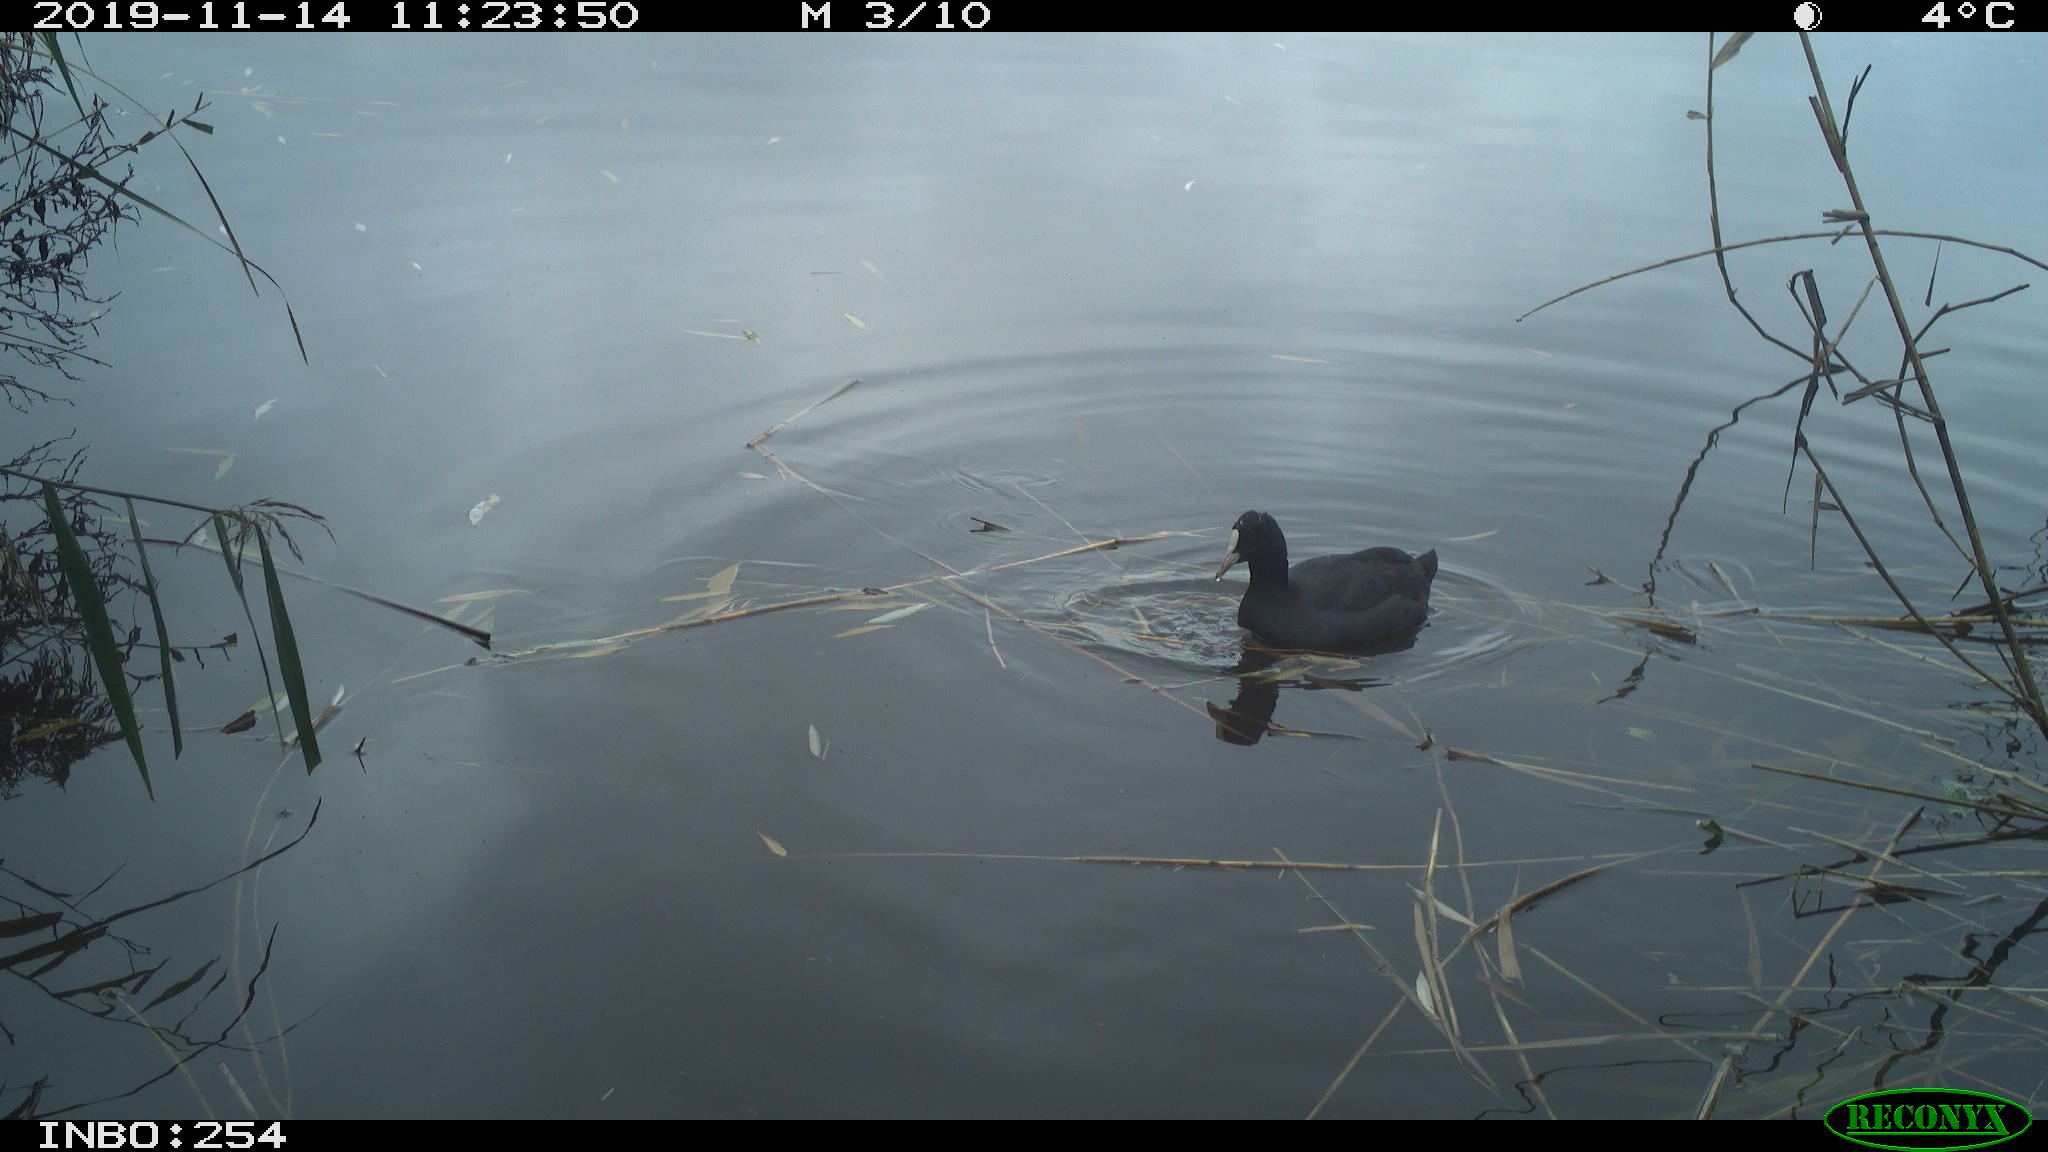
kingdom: Animalia
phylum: Chordata
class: Aves
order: Gruiformes
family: Rallidae
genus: Fulica
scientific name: Fulica atra
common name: Eurasian coot
